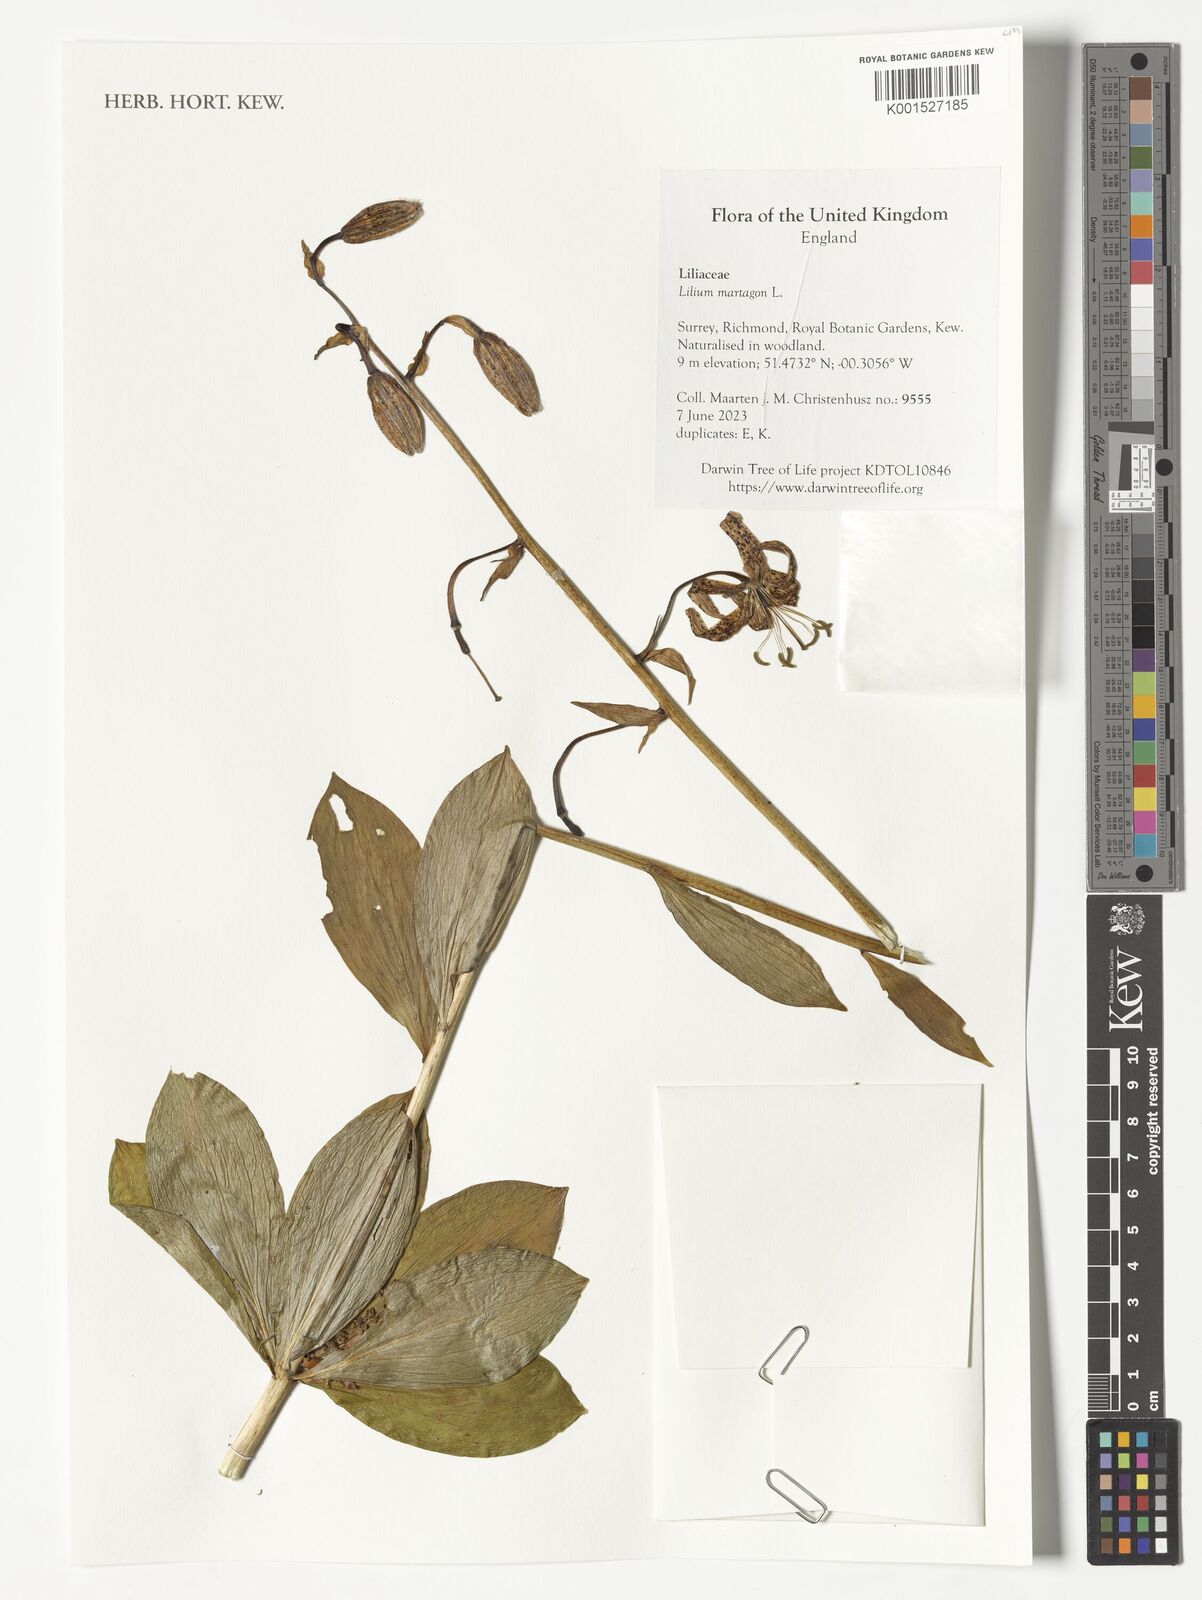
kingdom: Plantae
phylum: Tracheophyta
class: Liliopsida
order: Liliales
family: Liliaceae
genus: Lilium
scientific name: Lilium martagon
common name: Martagon lily
